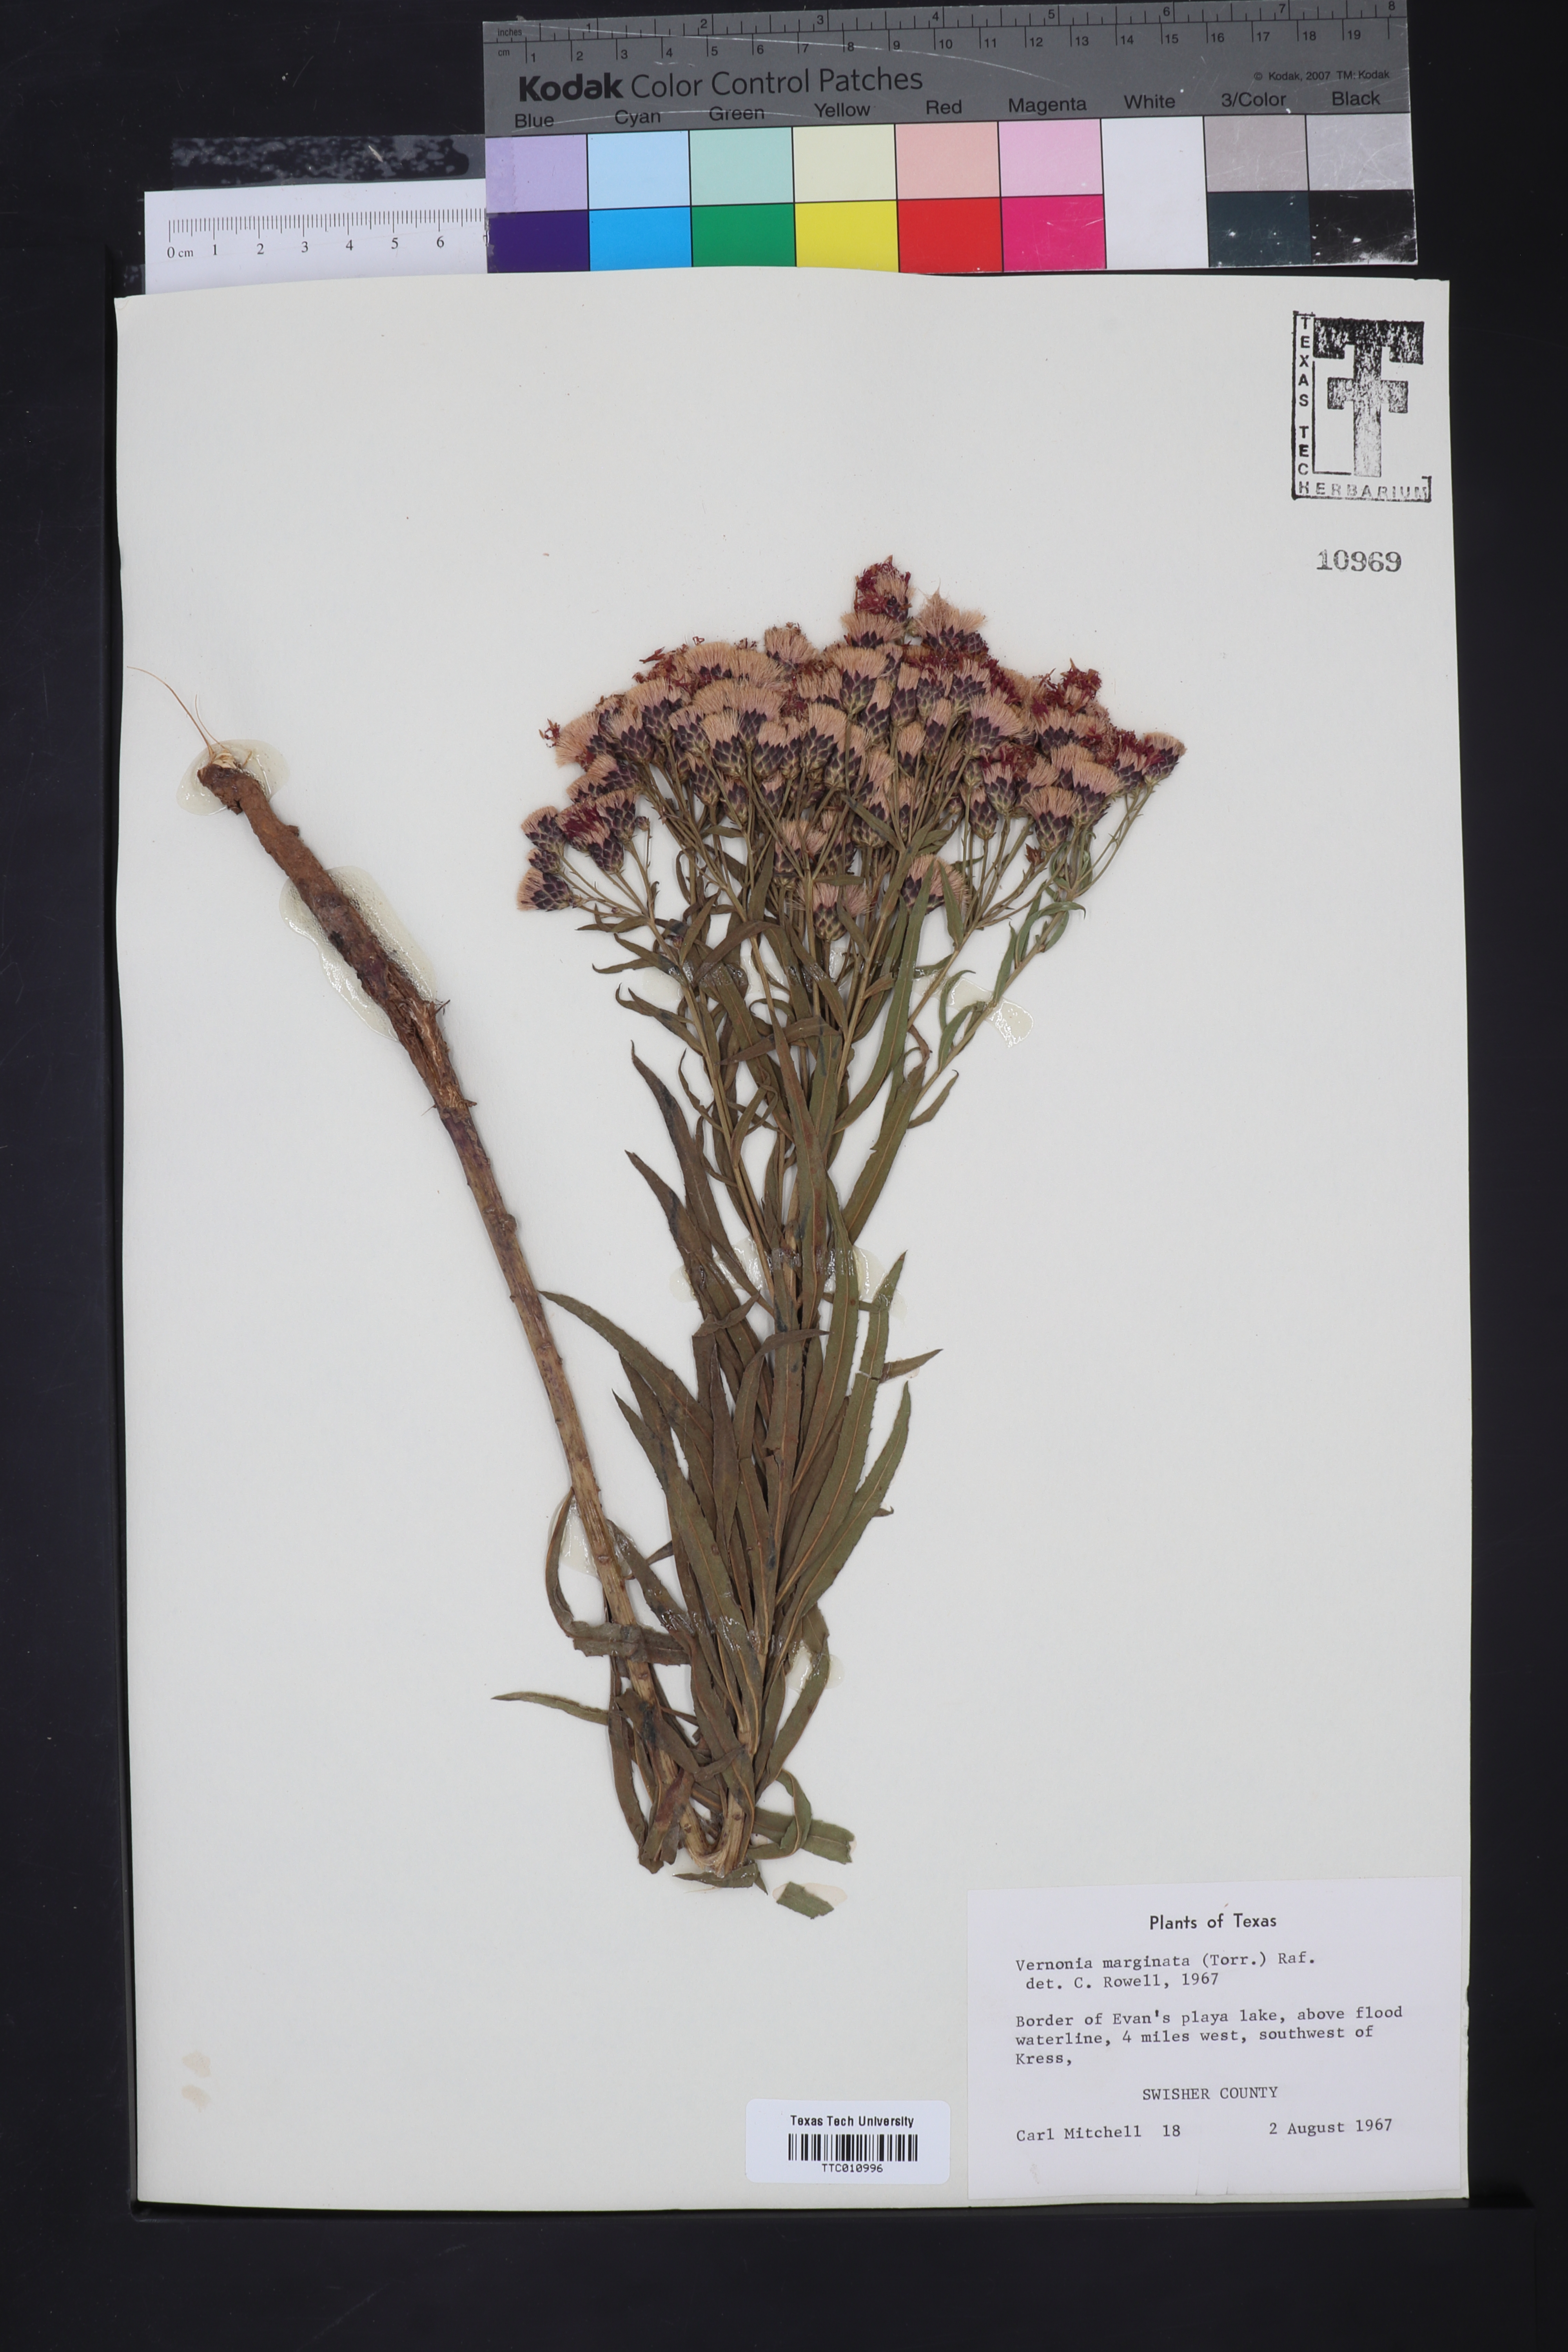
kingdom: Plantae
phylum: Tracheophyta
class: Magnoliopsida
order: Asterales
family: Asteraceae
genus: Vernonia
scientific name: Vernonia marginata
